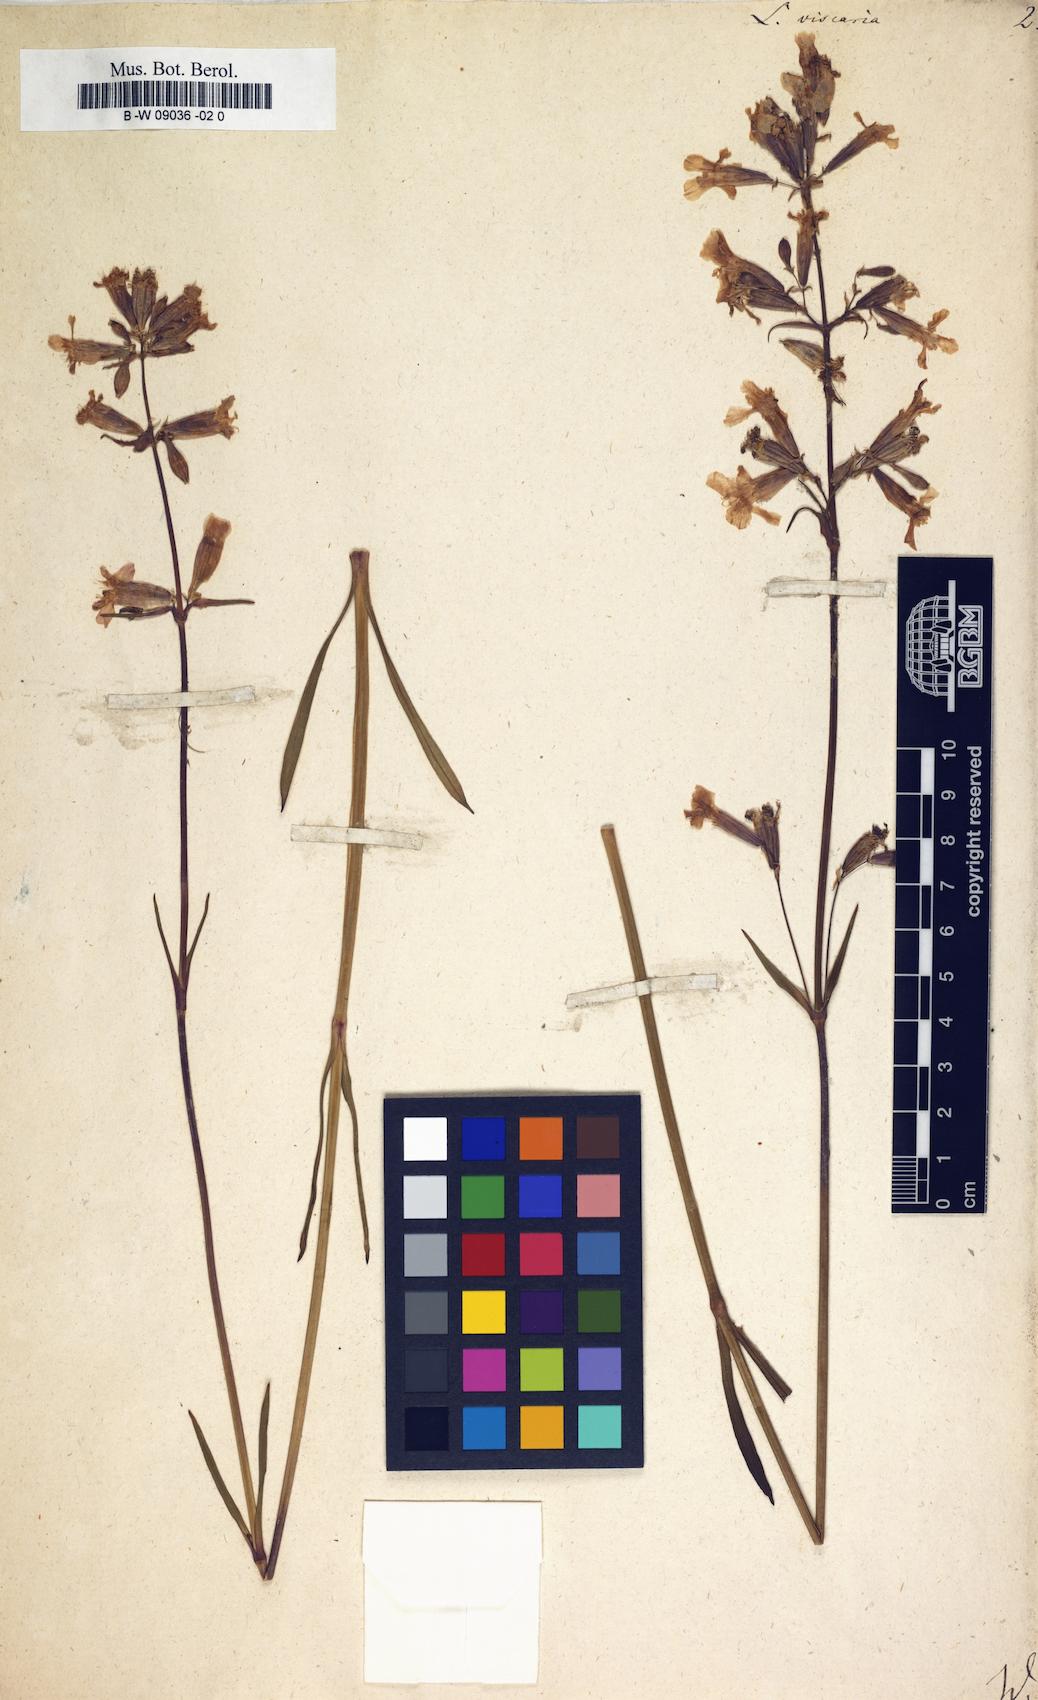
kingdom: Plantae
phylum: Tracheophyta
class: Magnoliopsida
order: Caryophyllales
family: Caryophyllaceae
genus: Viscaria
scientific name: Viscaria vulgaris
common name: Clammy campion
